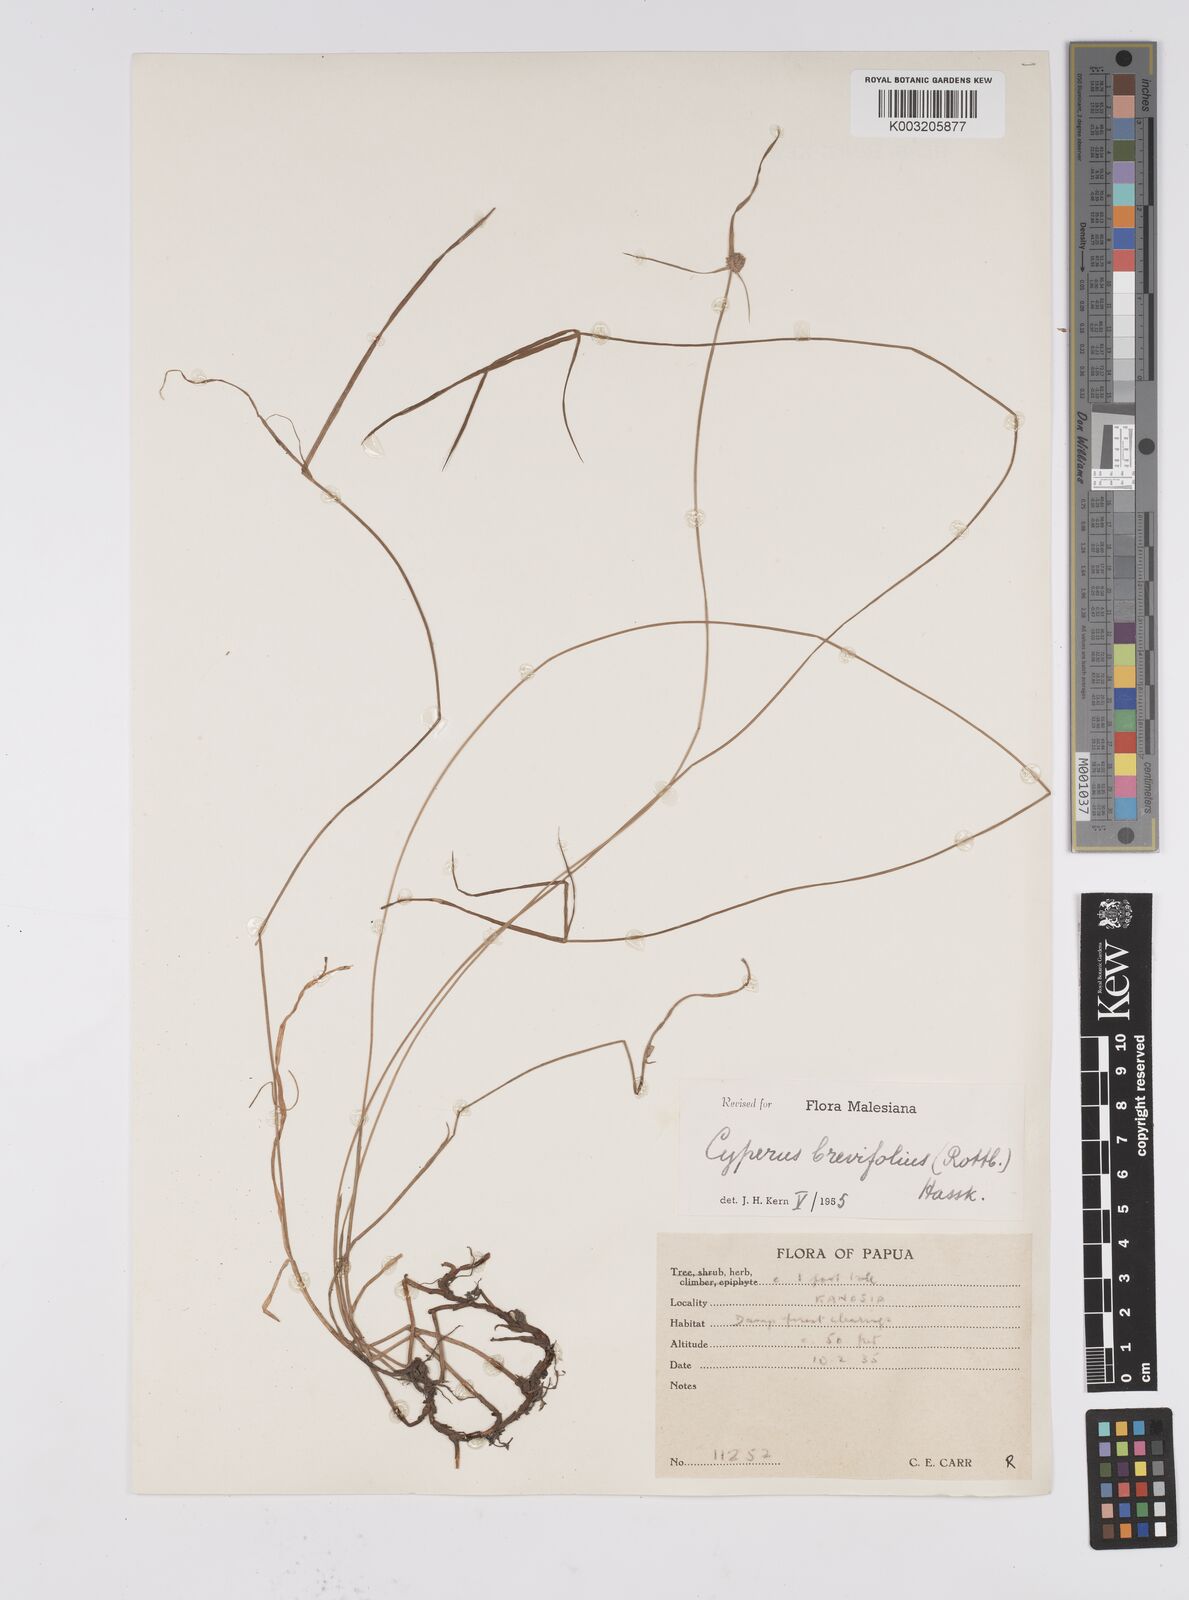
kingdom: Plantae
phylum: Tracheophyta
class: Liliopsida
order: Poales
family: Cyperaceae
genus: Cyperus
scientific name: Cyperus brevifolius
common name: Globe kyllinga
